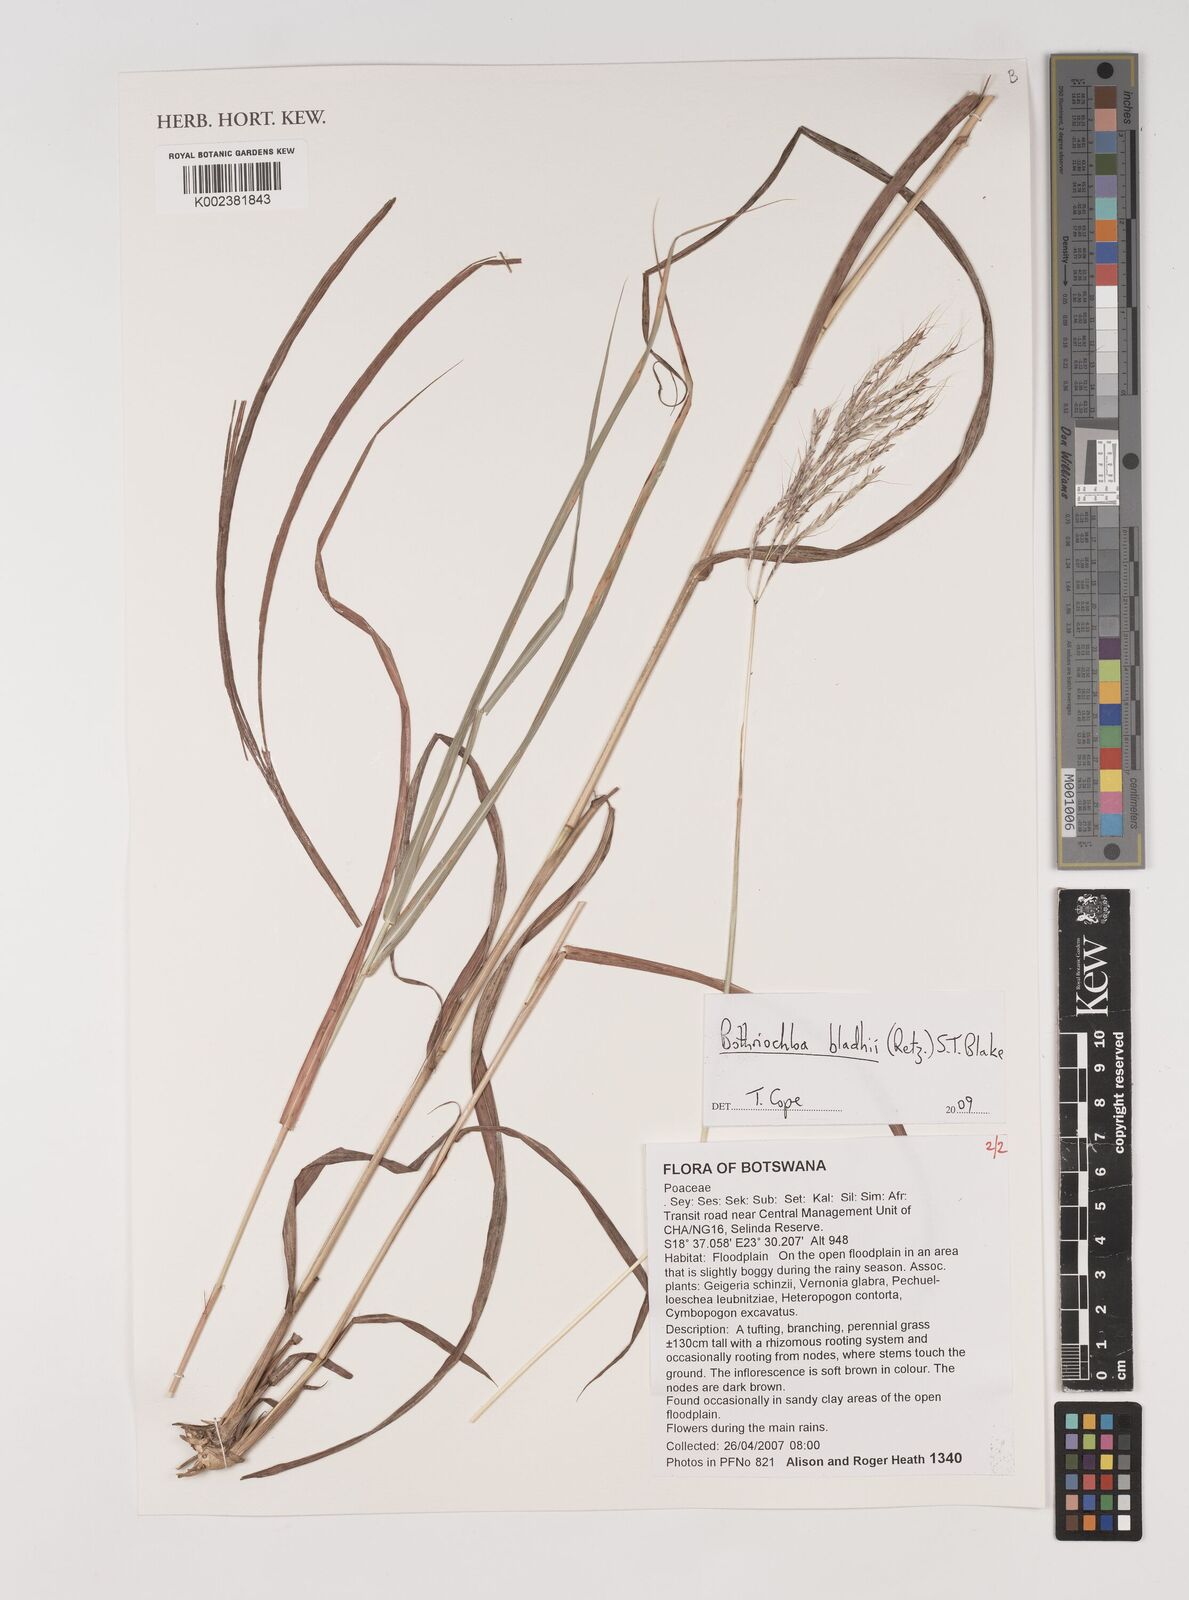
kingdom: Plantae
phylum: Tracheophyta
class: Liliopsida
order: Poales
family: Poaceae
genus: Bothriochloa
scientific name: Bothriochloa bladhii
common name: Caucasian bluestem
